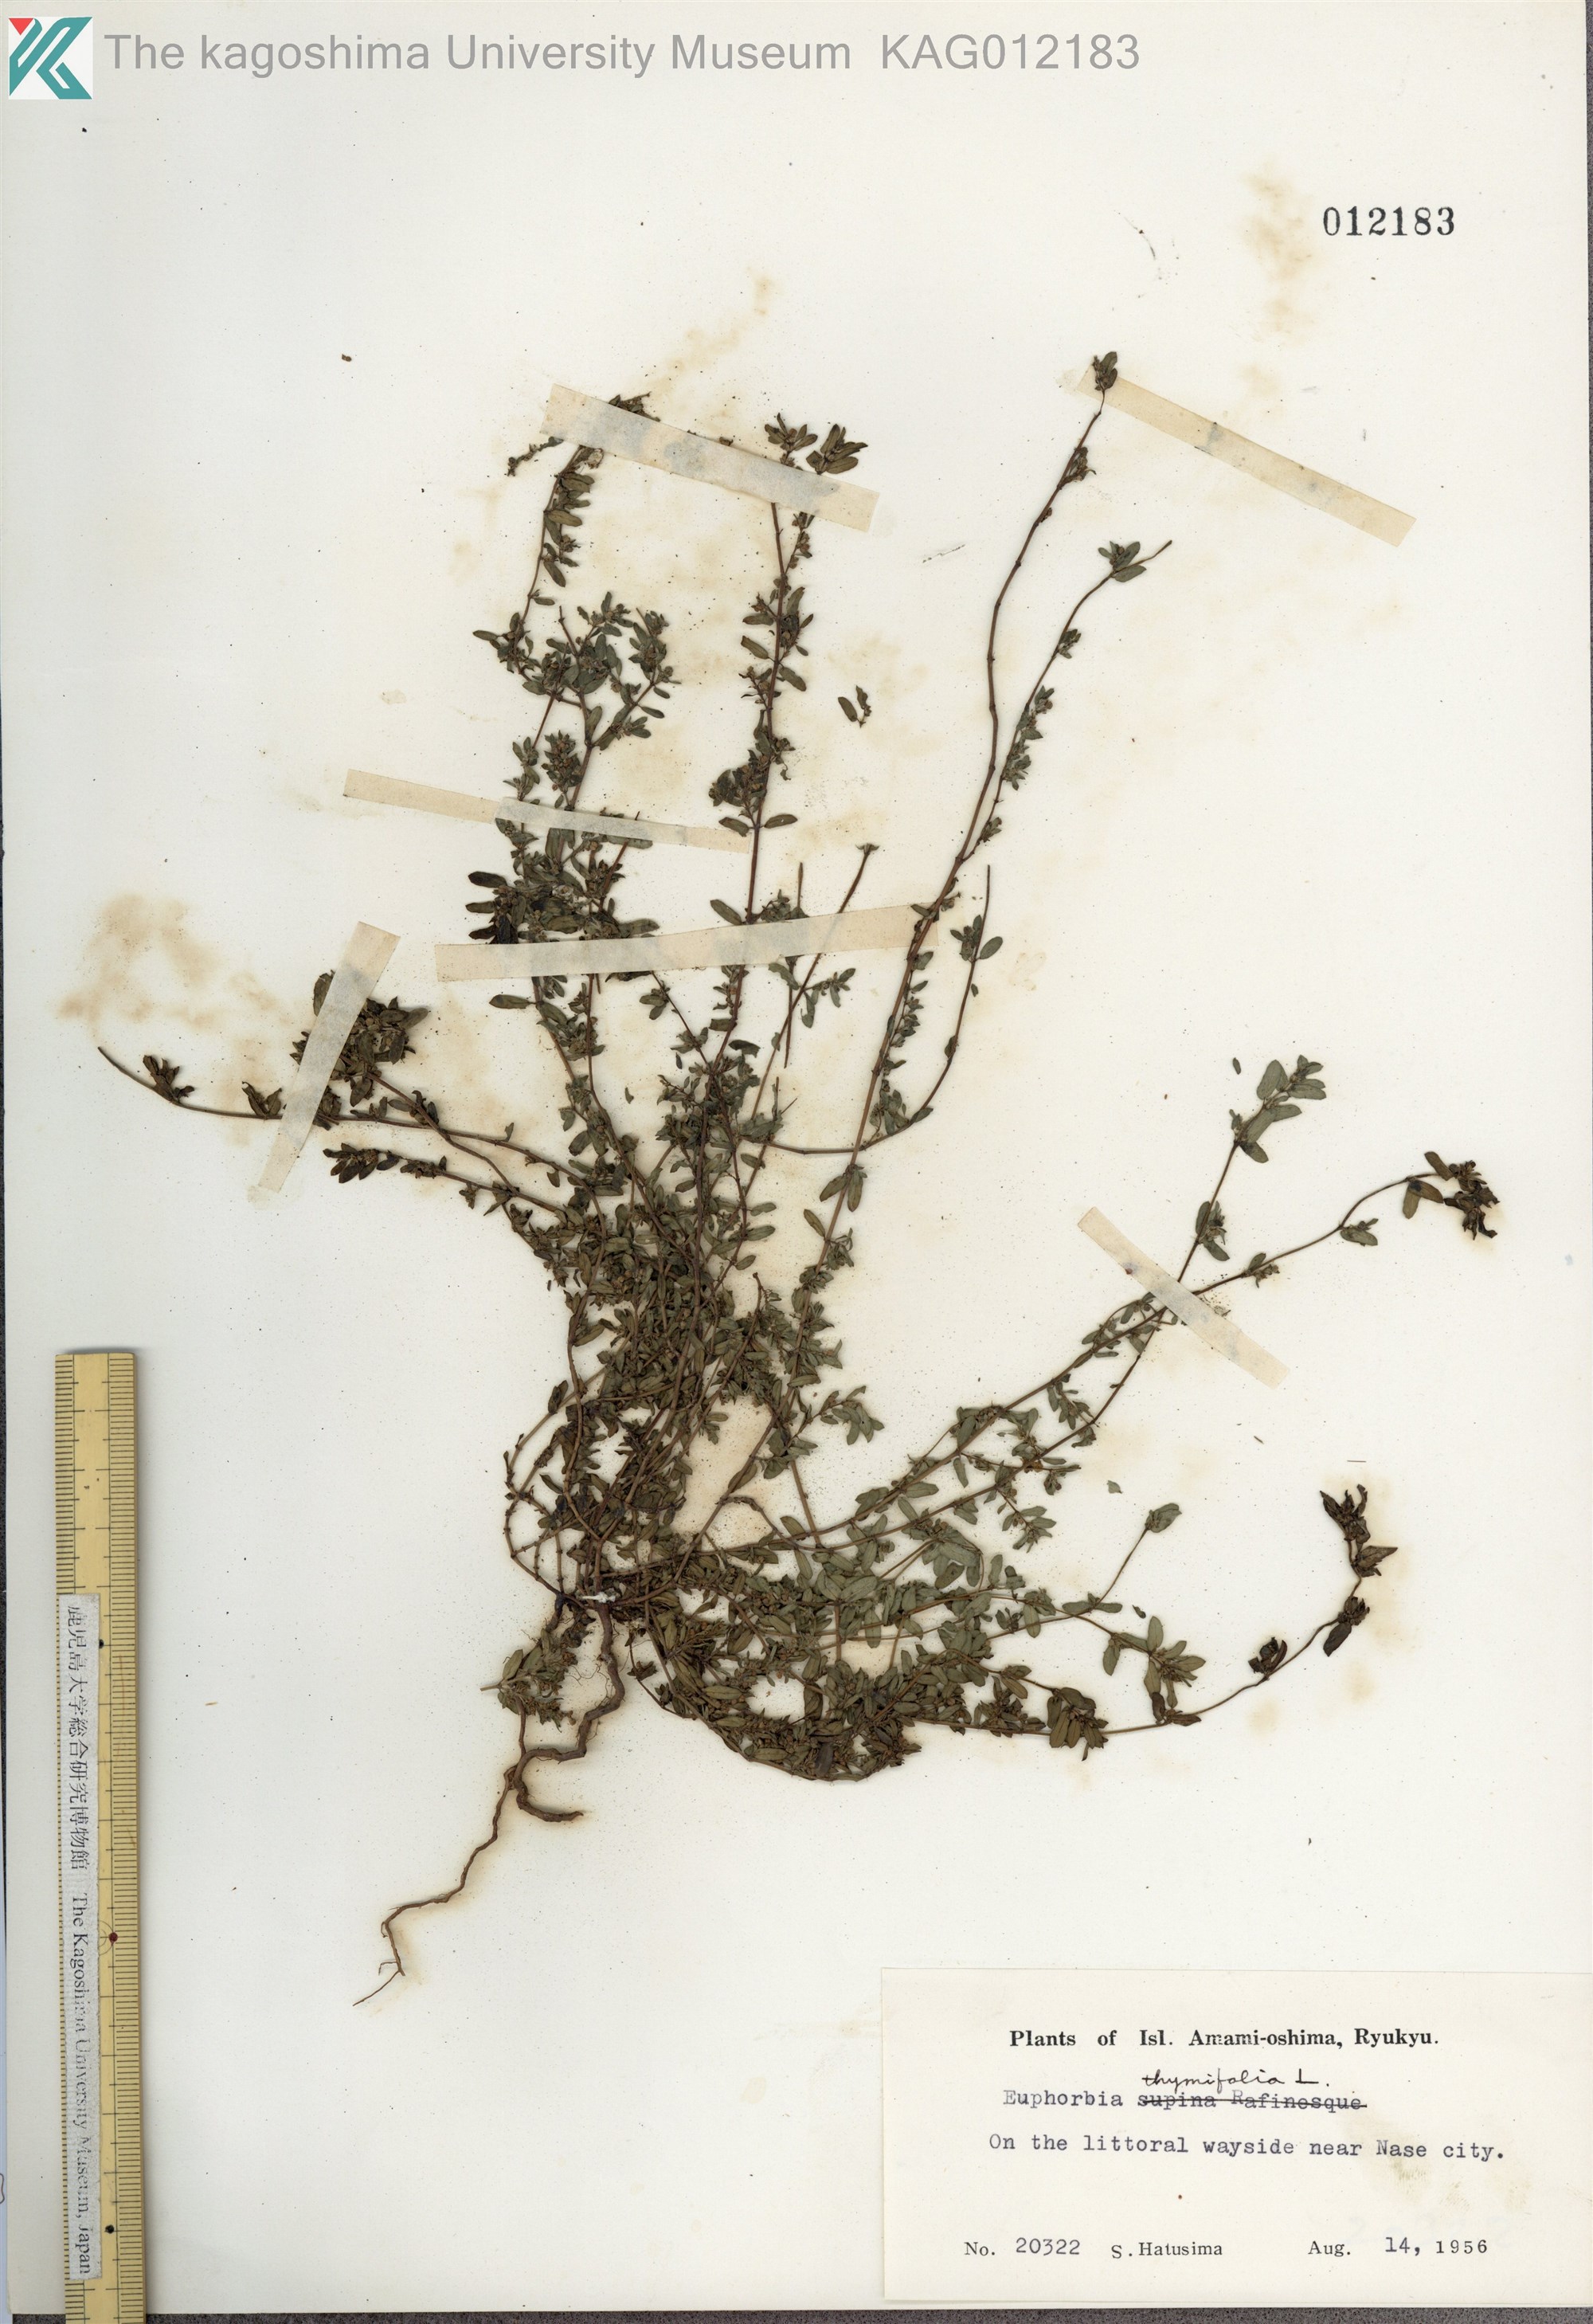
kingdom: Plantae
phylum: Tracheophyta
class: Magnoliopsida
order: Malpighiales
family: Euphorbiaceae
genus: Euphorbia
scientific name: Euphorbia maculata
